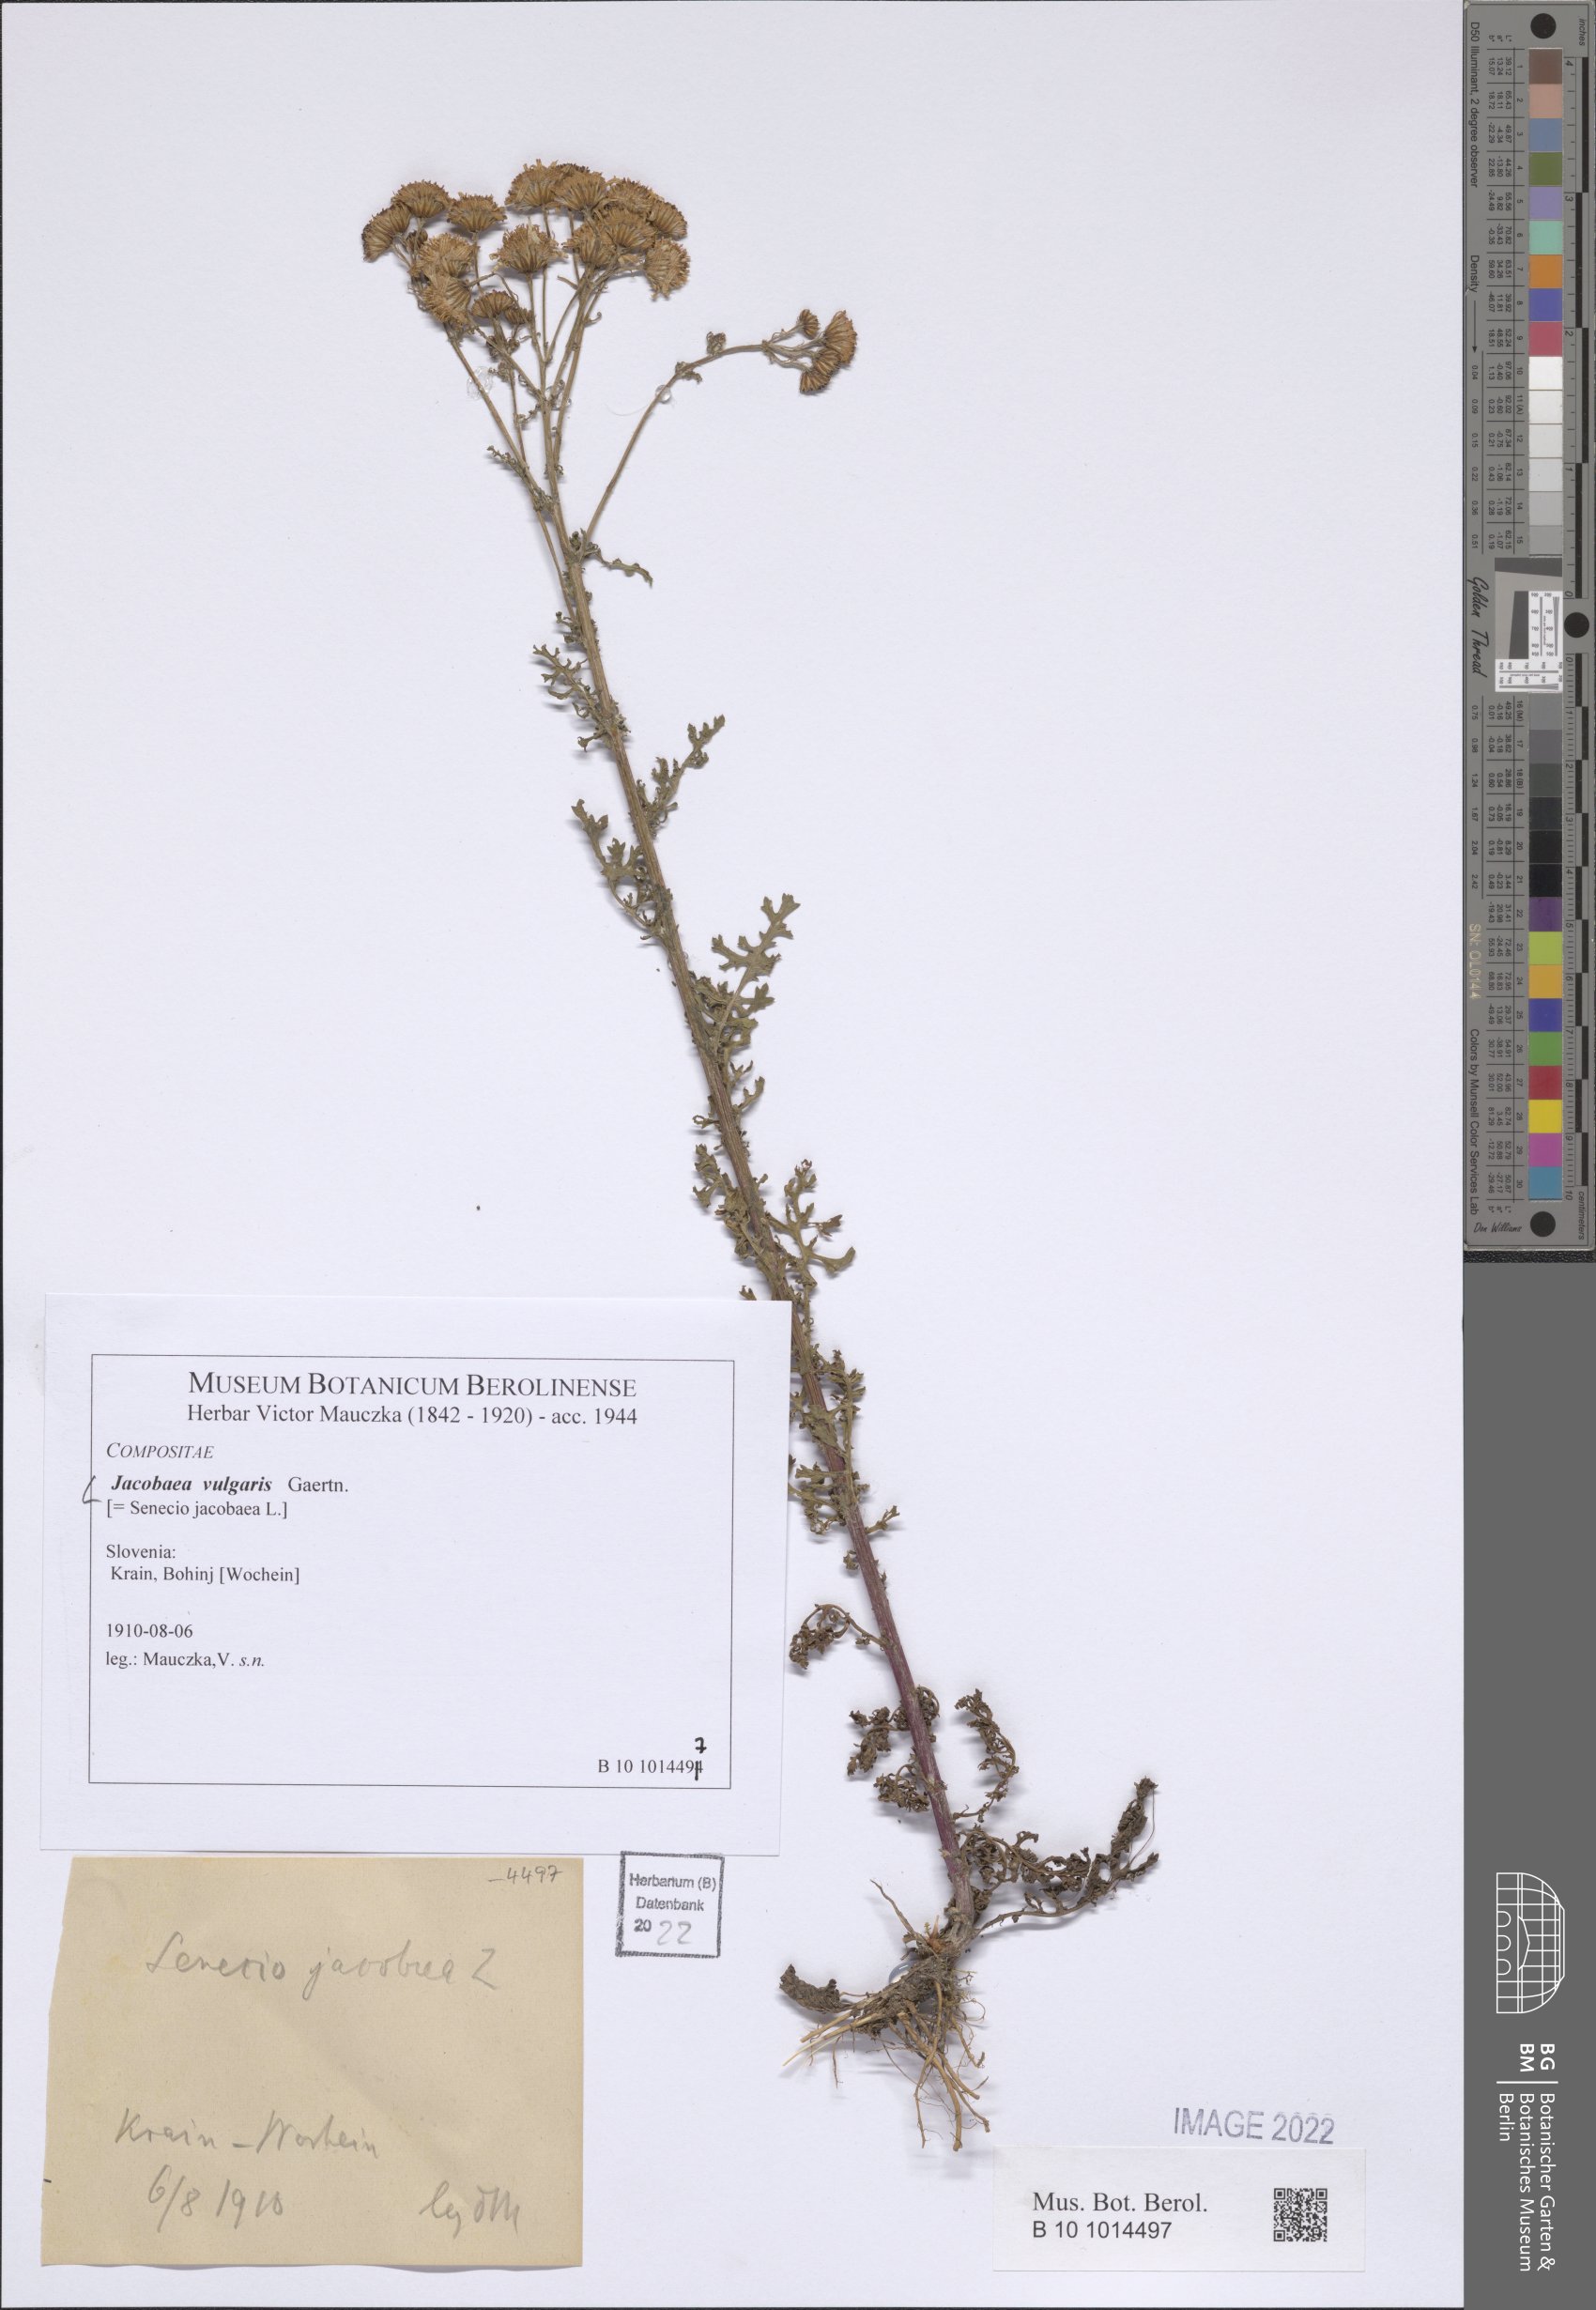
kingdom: Plantae
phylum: Tracheophyta
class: Magnoliopsida
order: Asterales
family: Asteraceae
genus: Jacobaea
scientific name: Jacobaea vulgaris
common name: Stinking willie
